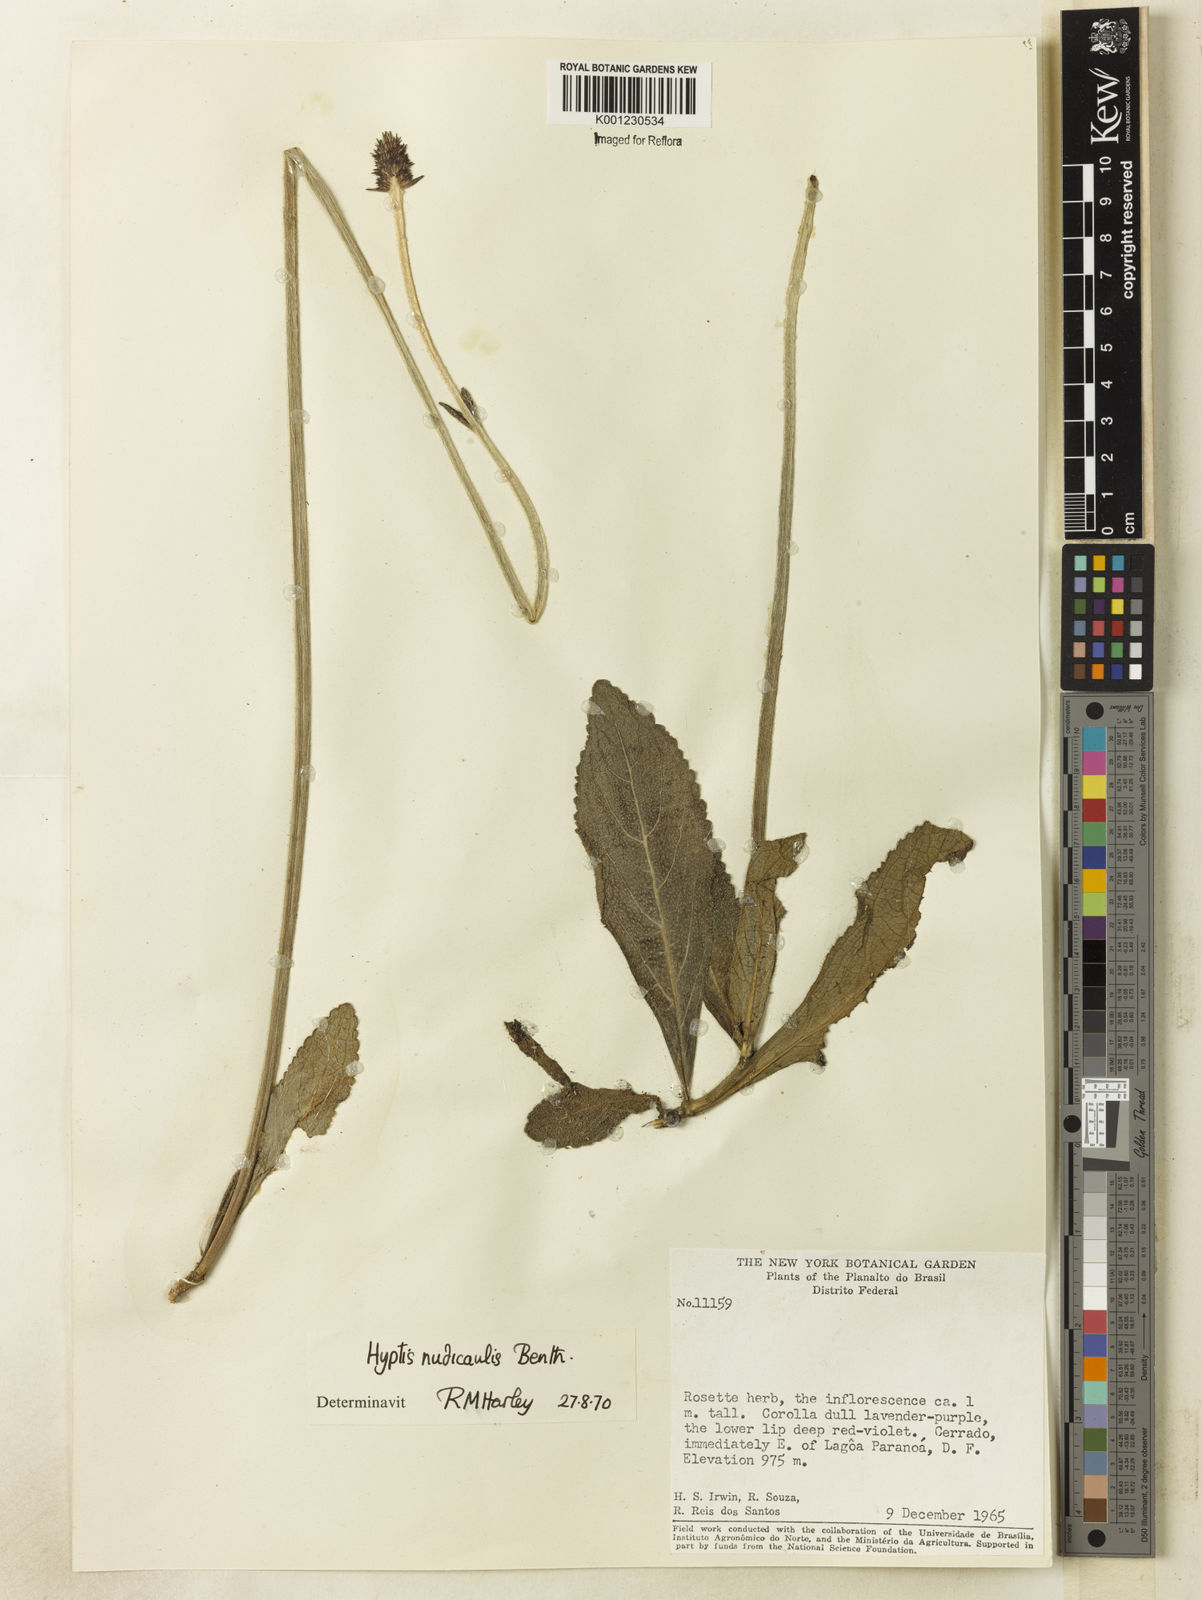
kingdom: Plantae
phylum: Tracheophyta
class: Magnoliopsida
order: Lamiales
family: Lamiaceae
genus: Hyptis
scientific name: Hyptis nudicaulis
